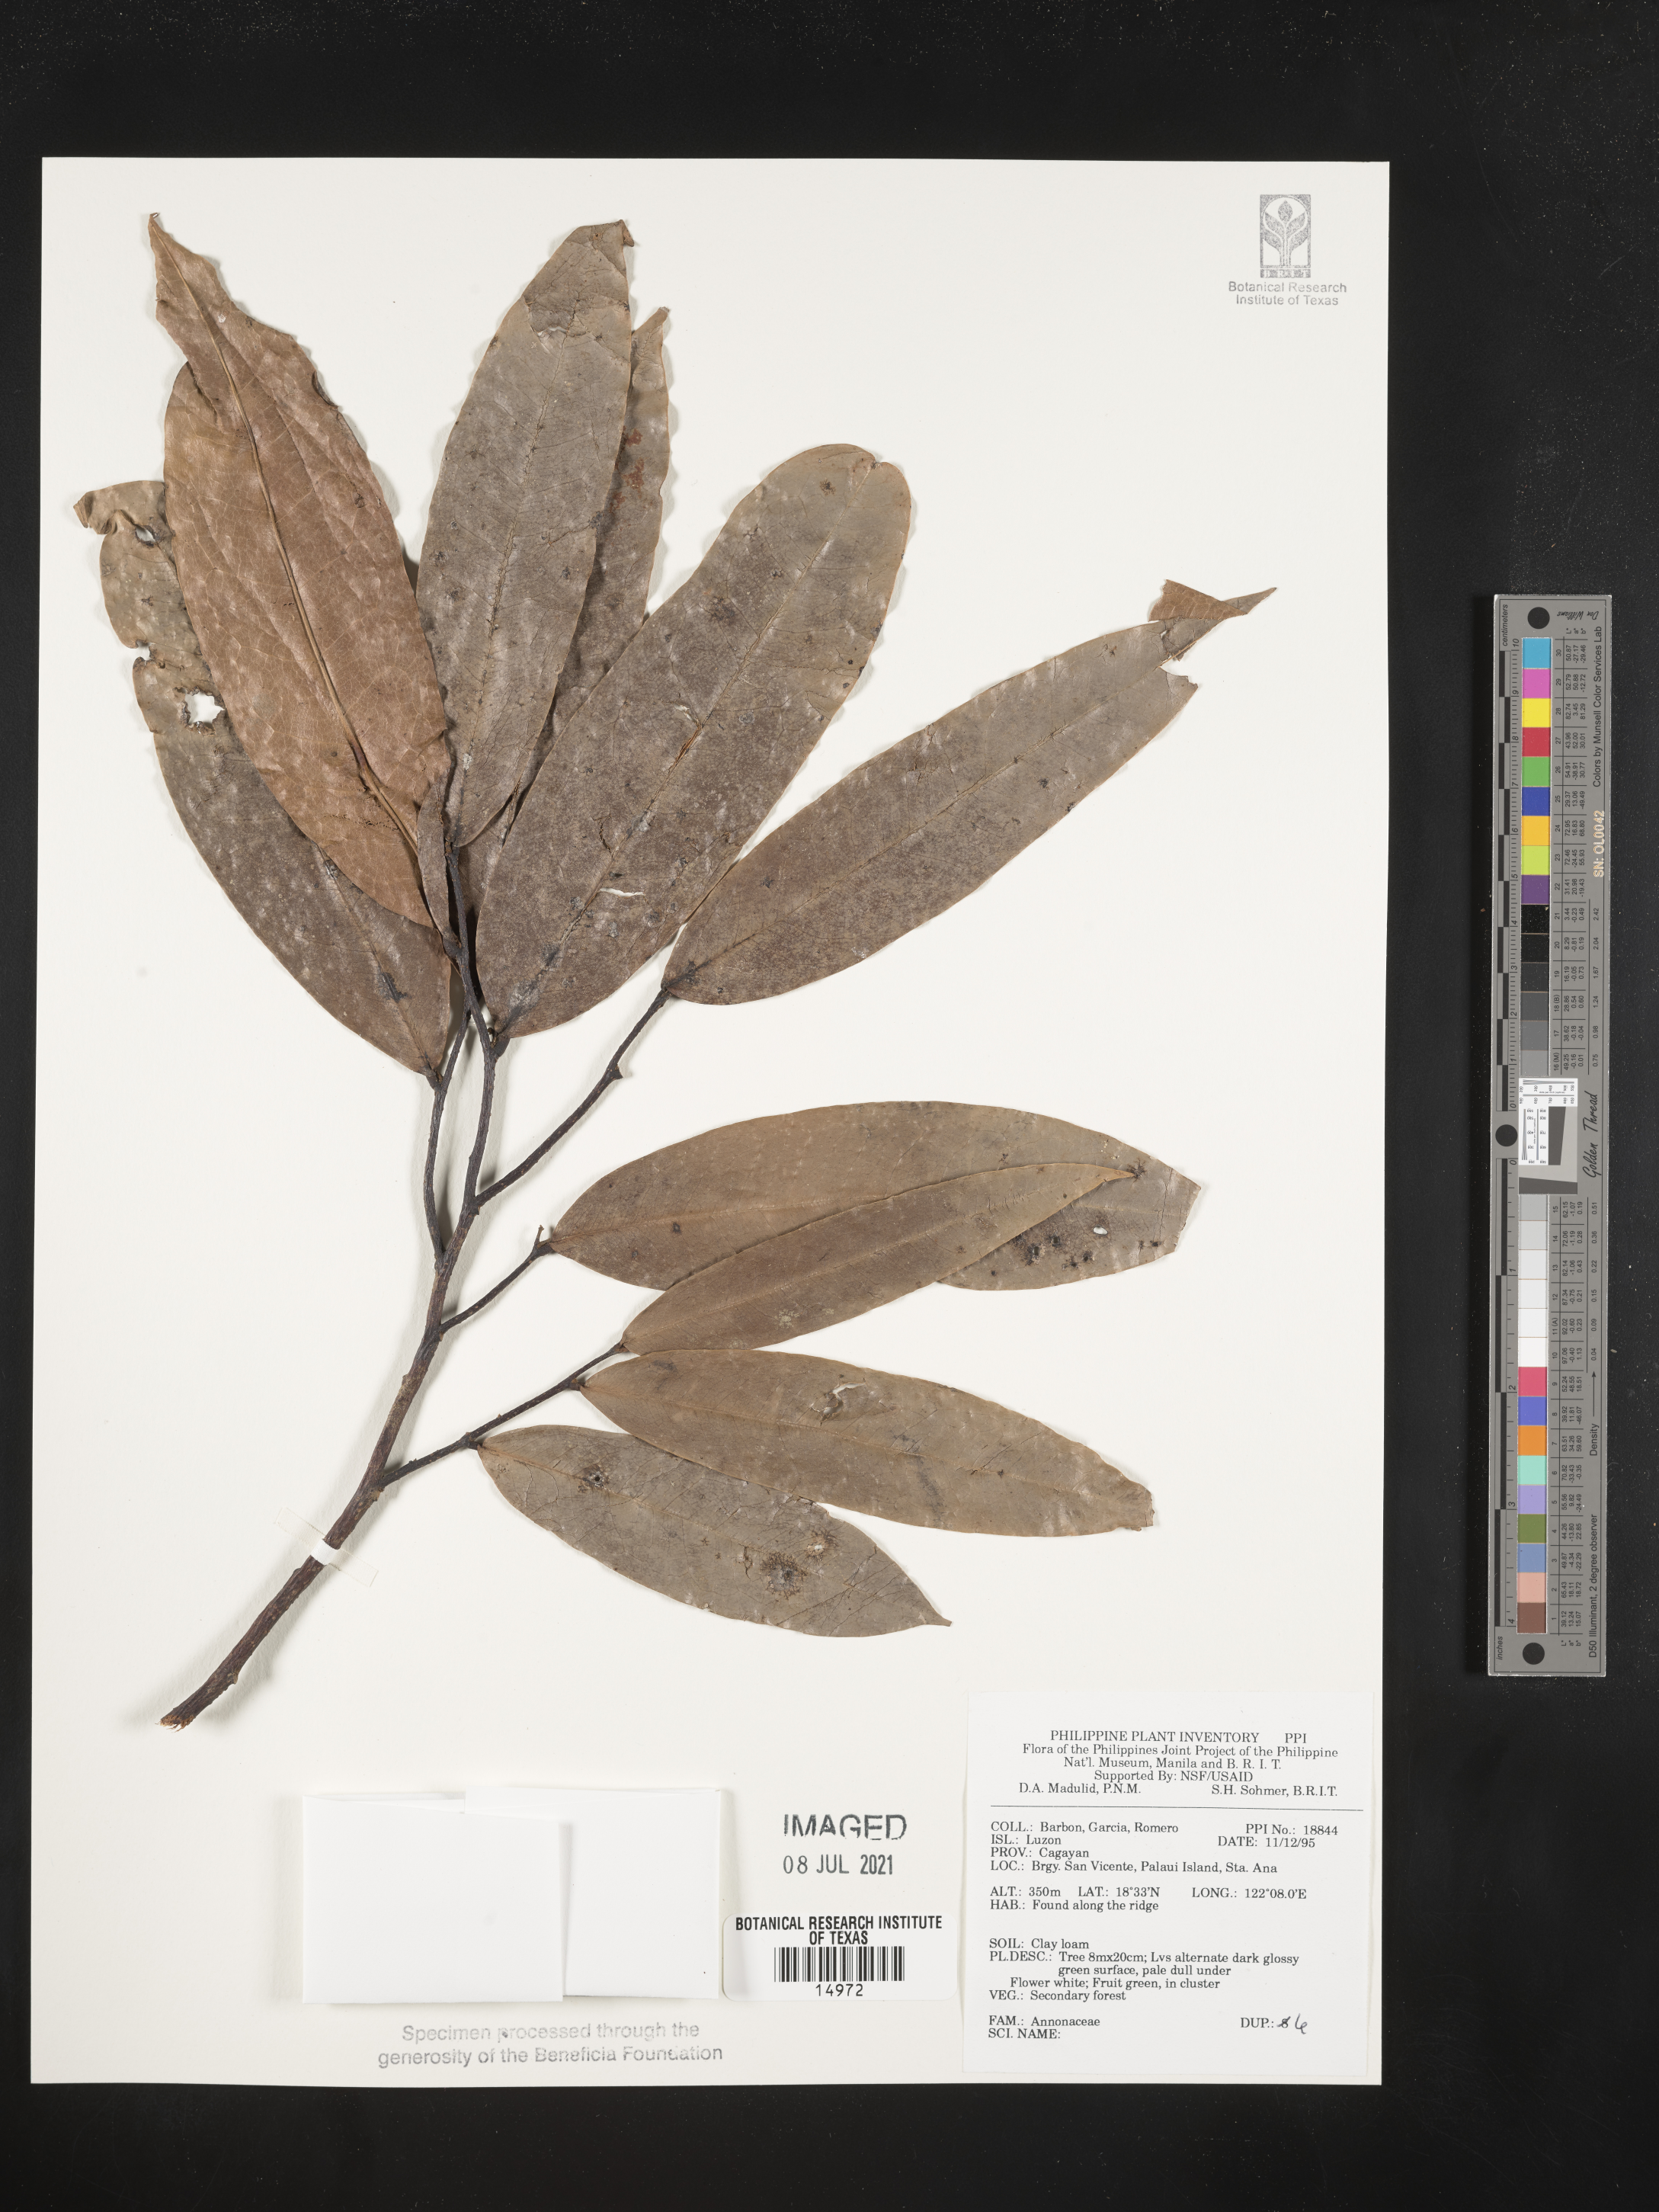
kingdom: Plantae
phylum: Tracheophyta
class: Magnoliopsida
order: Magnoliales
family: Annonaceae
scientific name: Annonaceae
